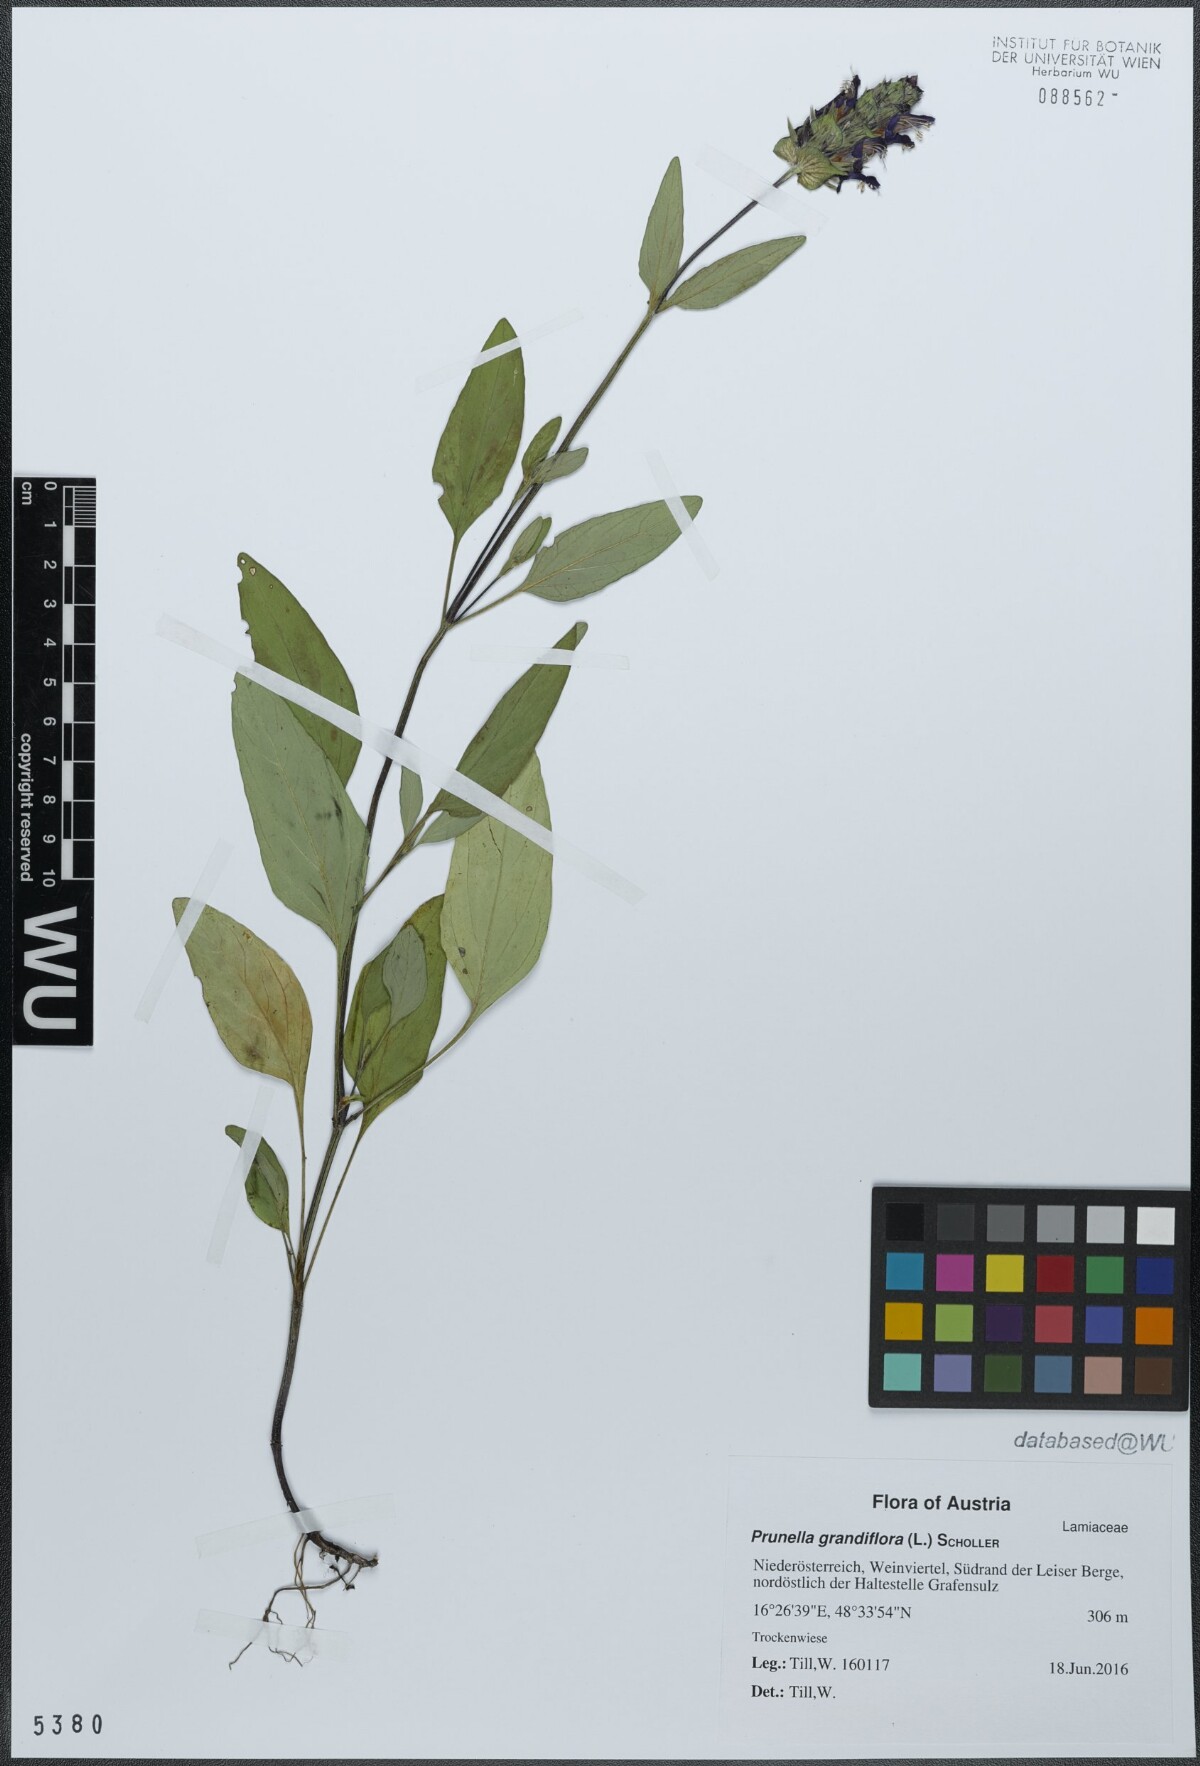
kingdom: Plantae
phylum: Tracheophyta
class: Magnoliopsida
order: Lamiales
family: Lamiaceae
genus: Prunella
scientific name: Prunella grandiflora
